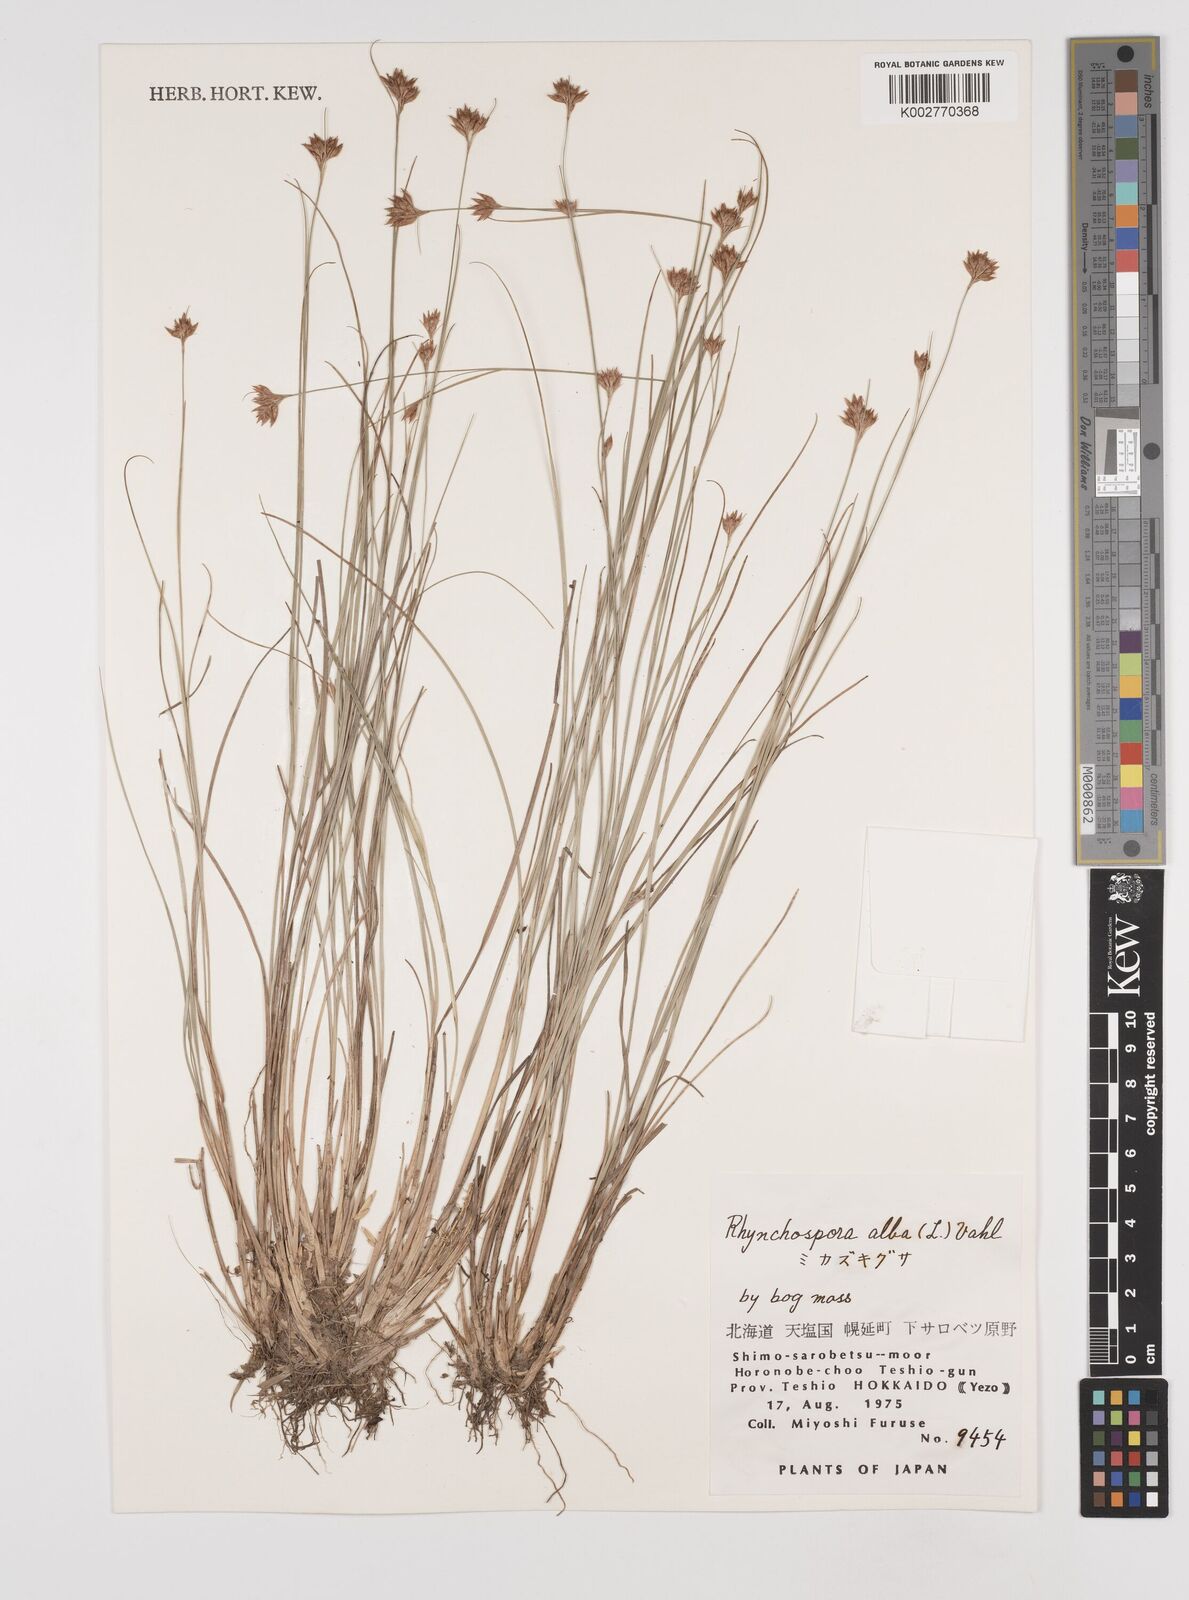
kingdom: Plantae
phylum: Tracheophyta
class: Liliopsida
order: Poales
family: Cyperaceae
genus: Rhynchospora
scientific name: Rhynchospora alba
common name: White beak-sedge
